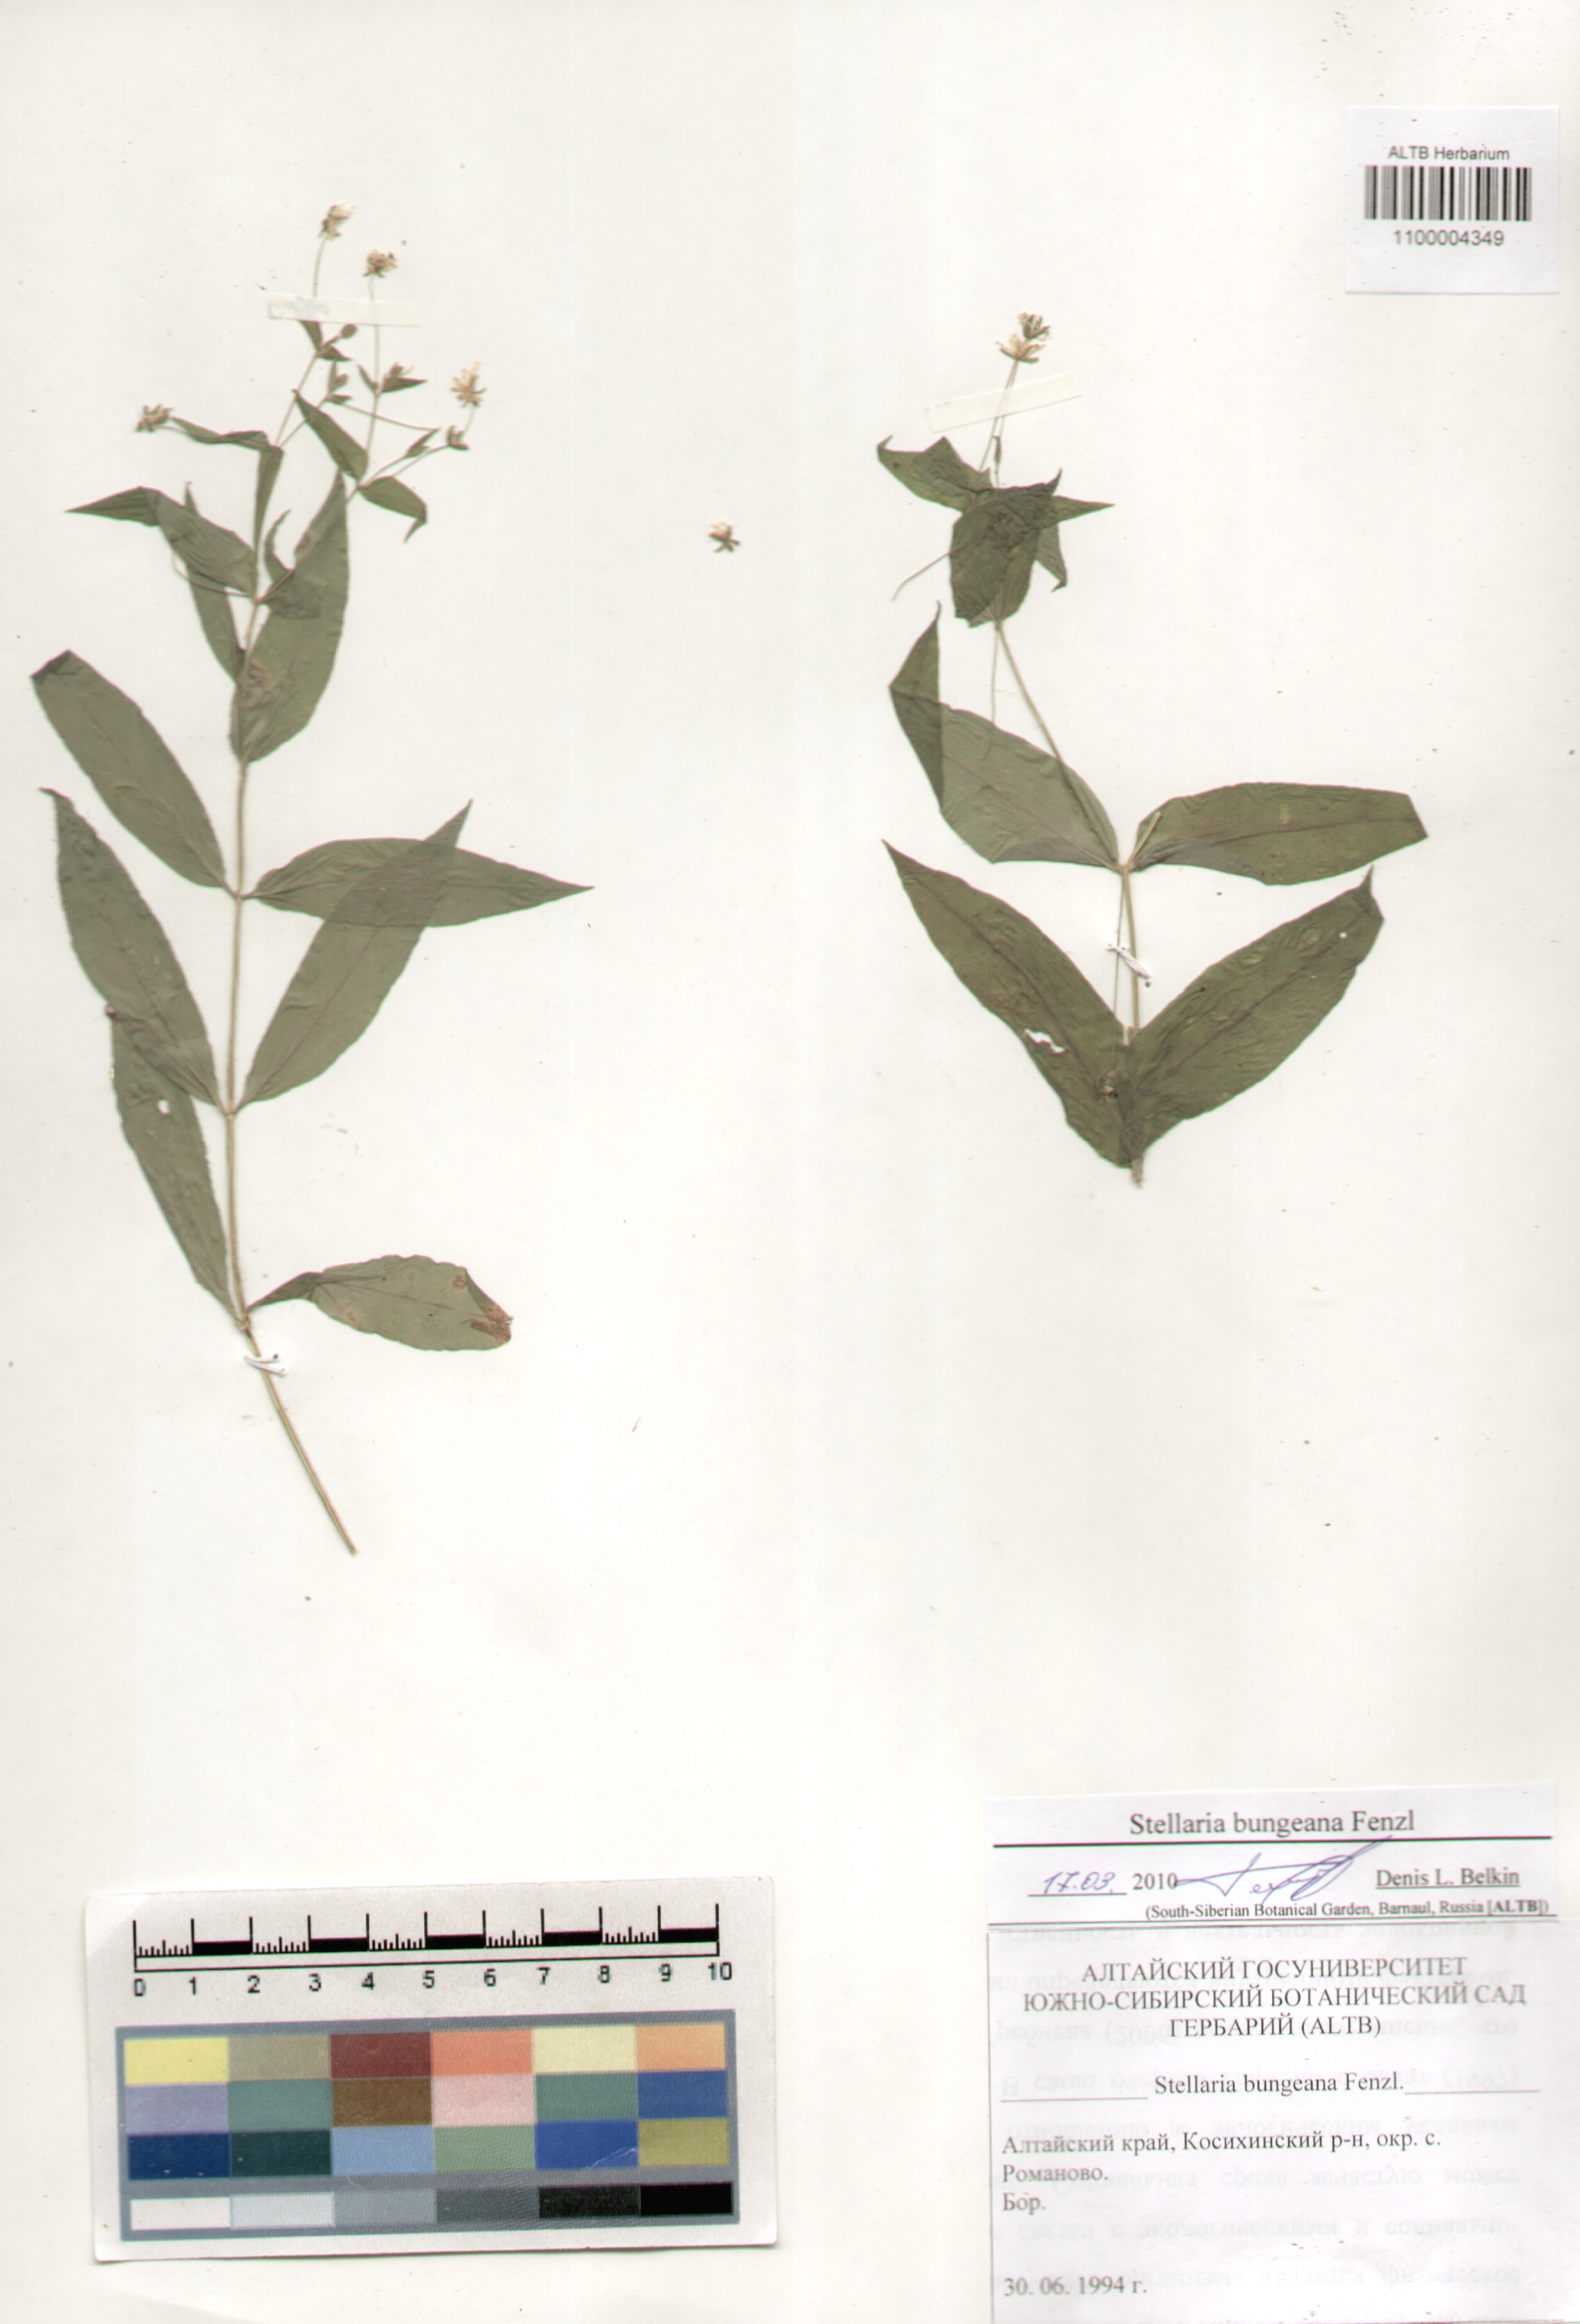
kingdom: Plantae
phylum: Tracheophyta
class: Magnoliopsida
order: Caryophyllales
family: Caryophyllaceae
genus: Stellaria
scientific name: Stellaria bungeana
